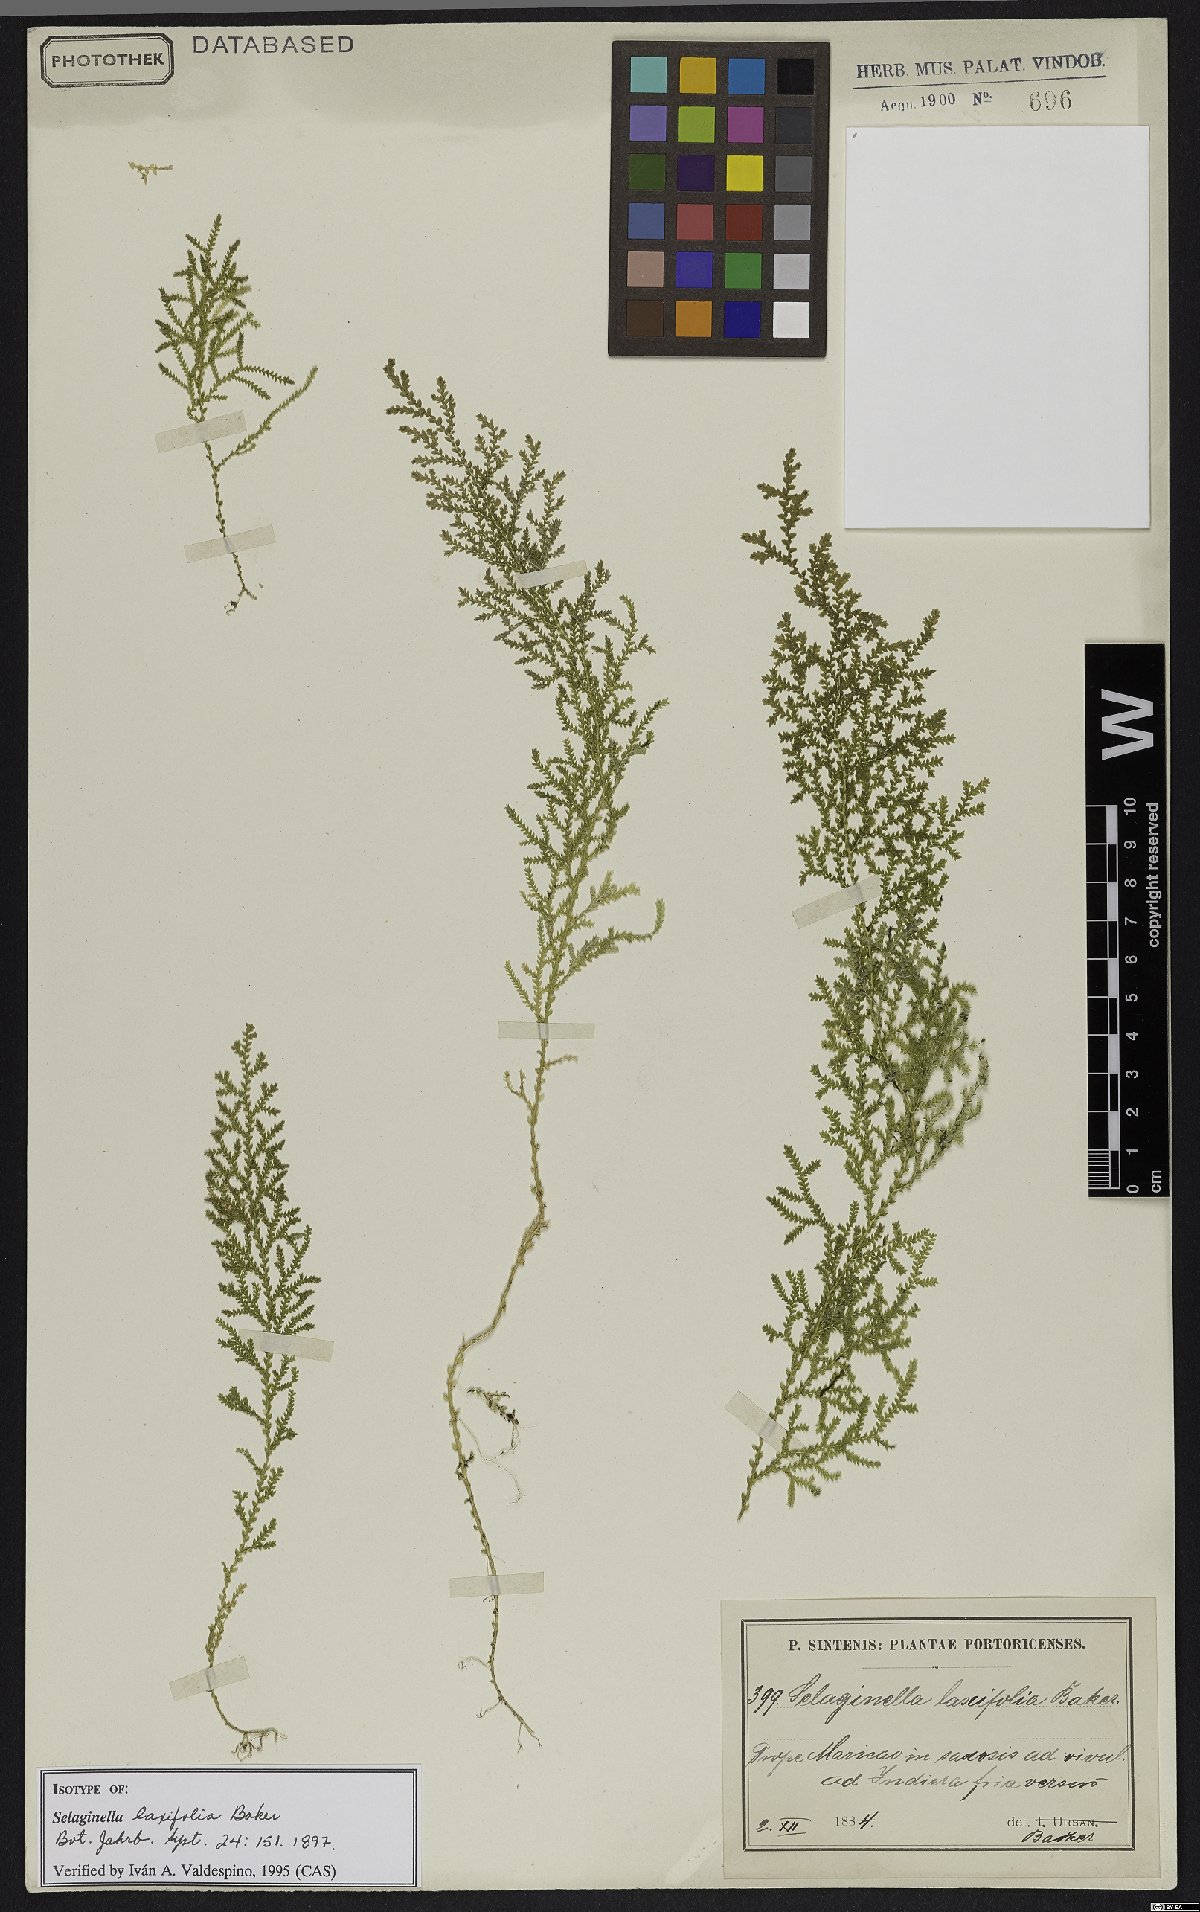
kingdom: Plantae
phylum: Tracheophyta
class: Lycopodiopsida
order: Selaginellales
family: Selaginellaceae
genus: Selaginella
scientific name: Selaginella laxifolia
